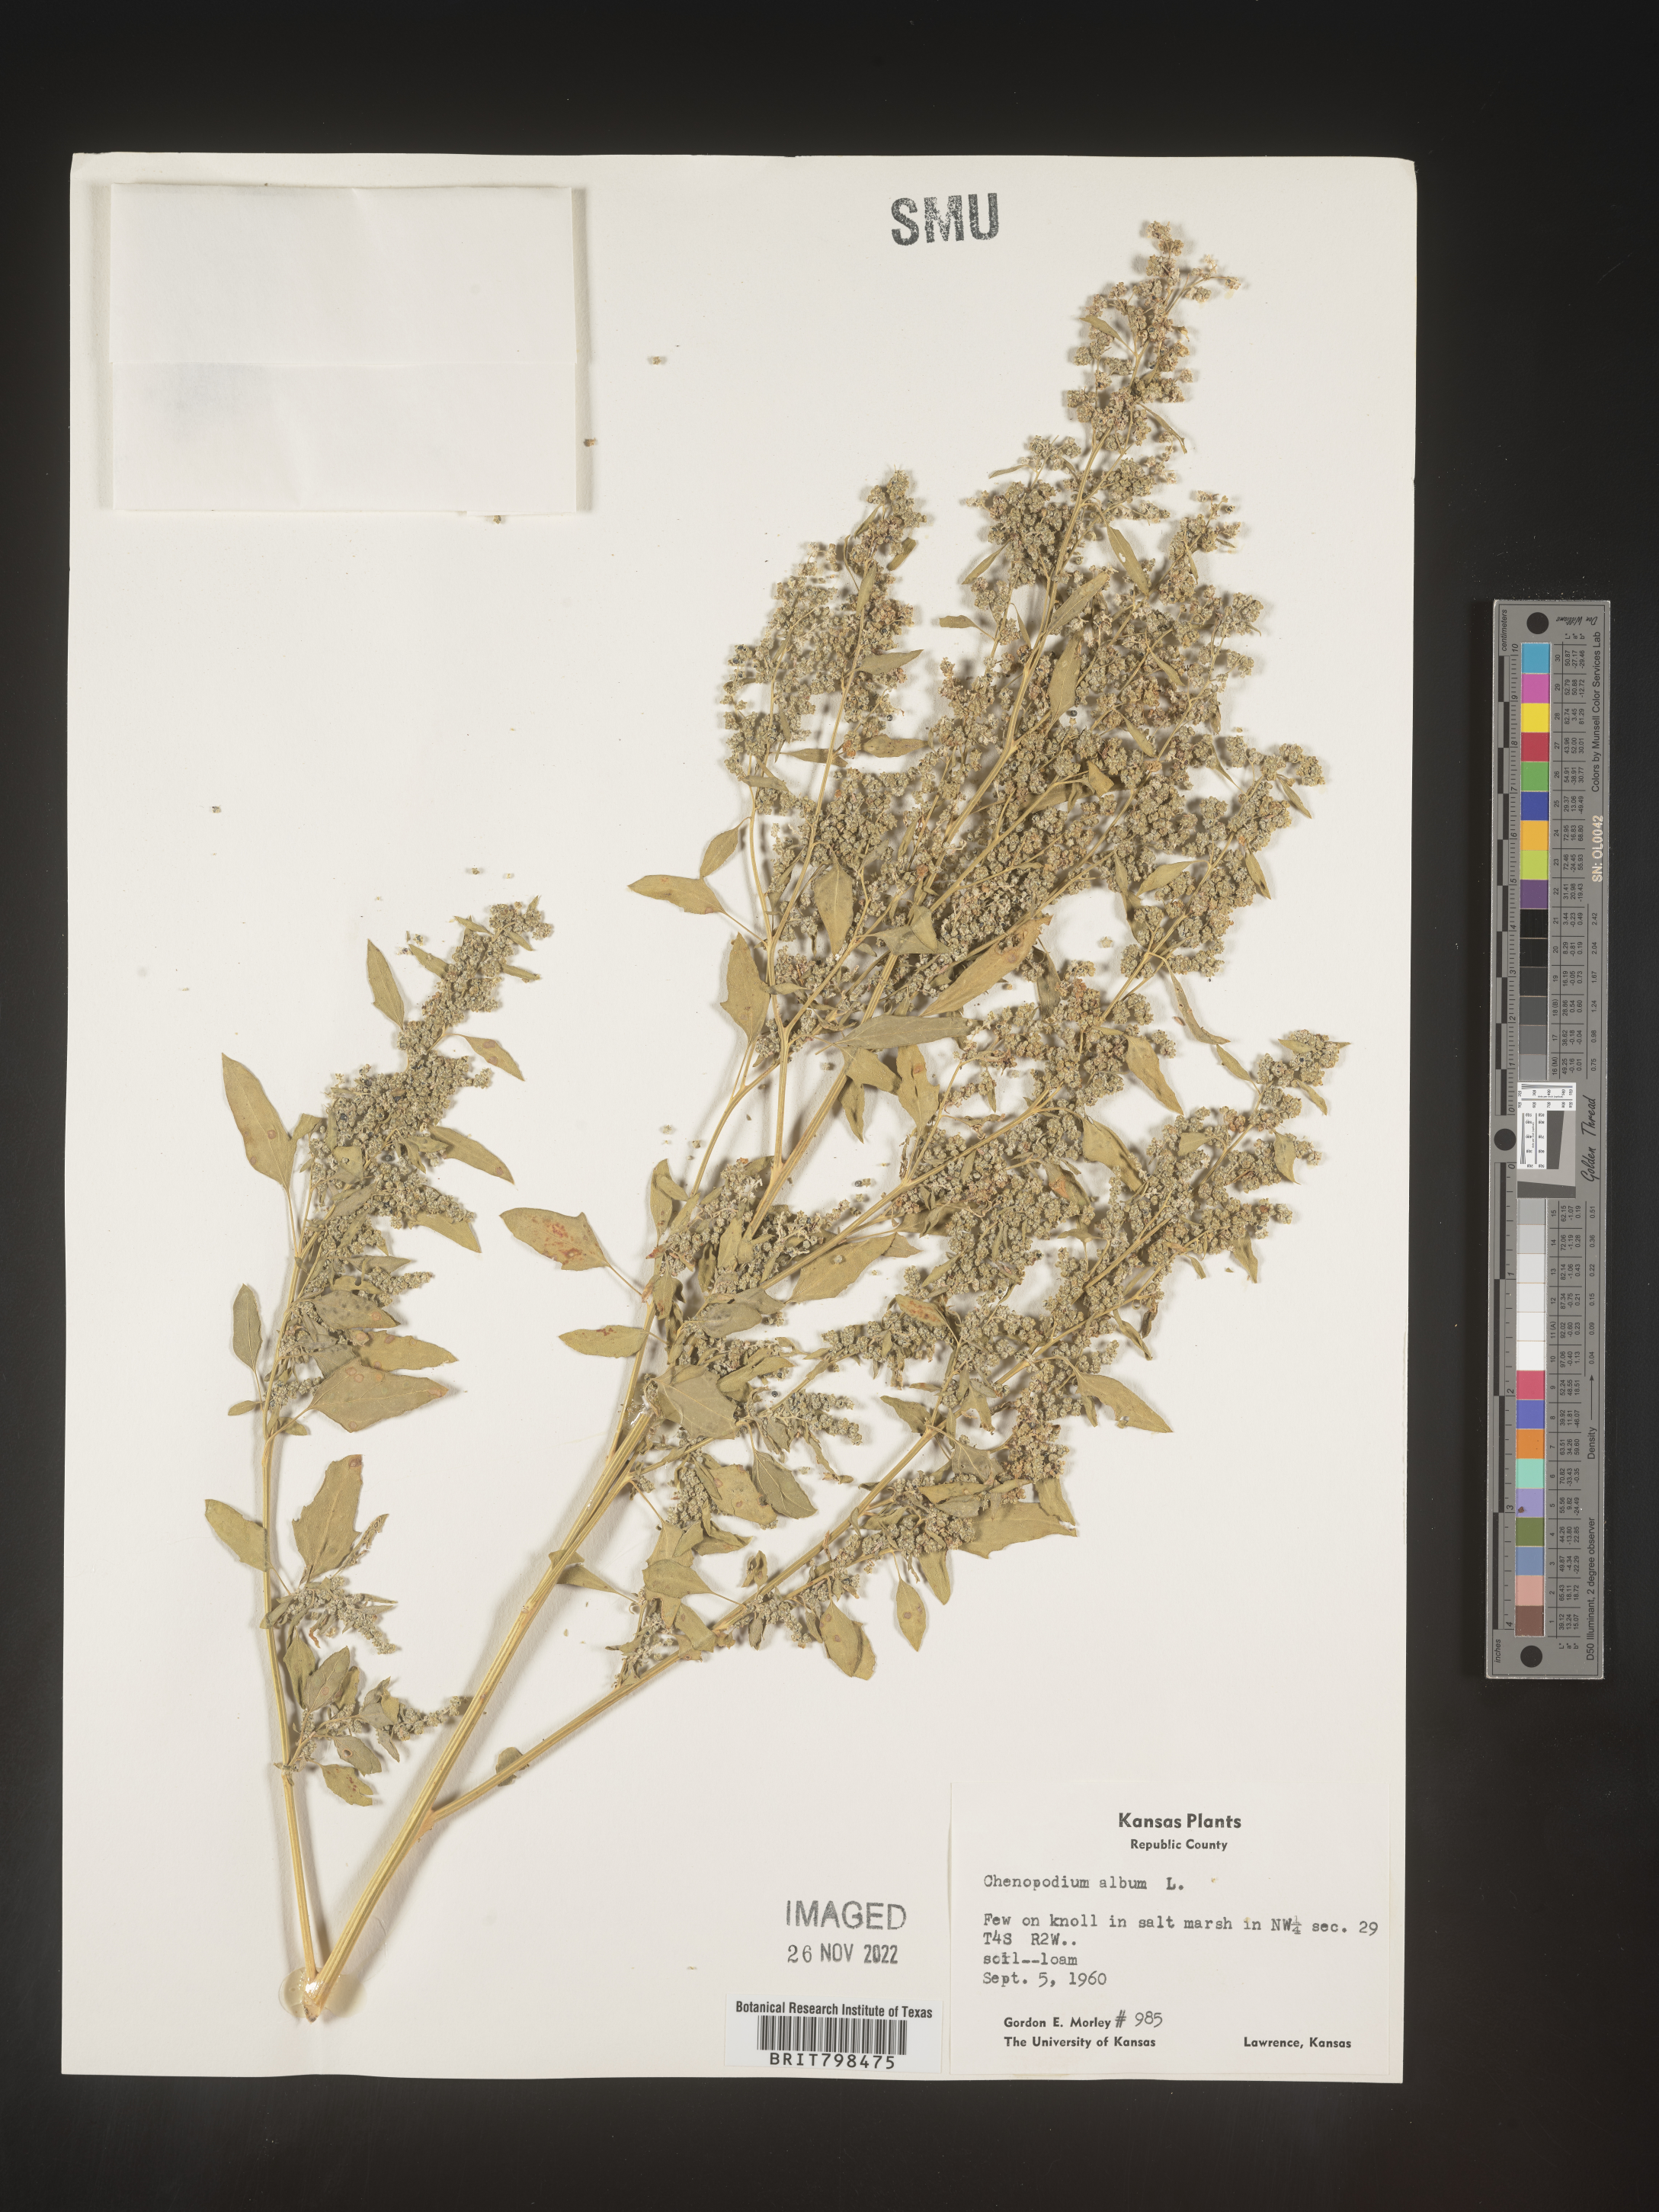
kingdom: Plantae
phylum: Tracheophyta
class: Magnoliopsida
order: Caryophyllales
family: Amaranthaceae
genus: Chenopodium
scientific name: Chenopodium album
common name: Fat-hen
